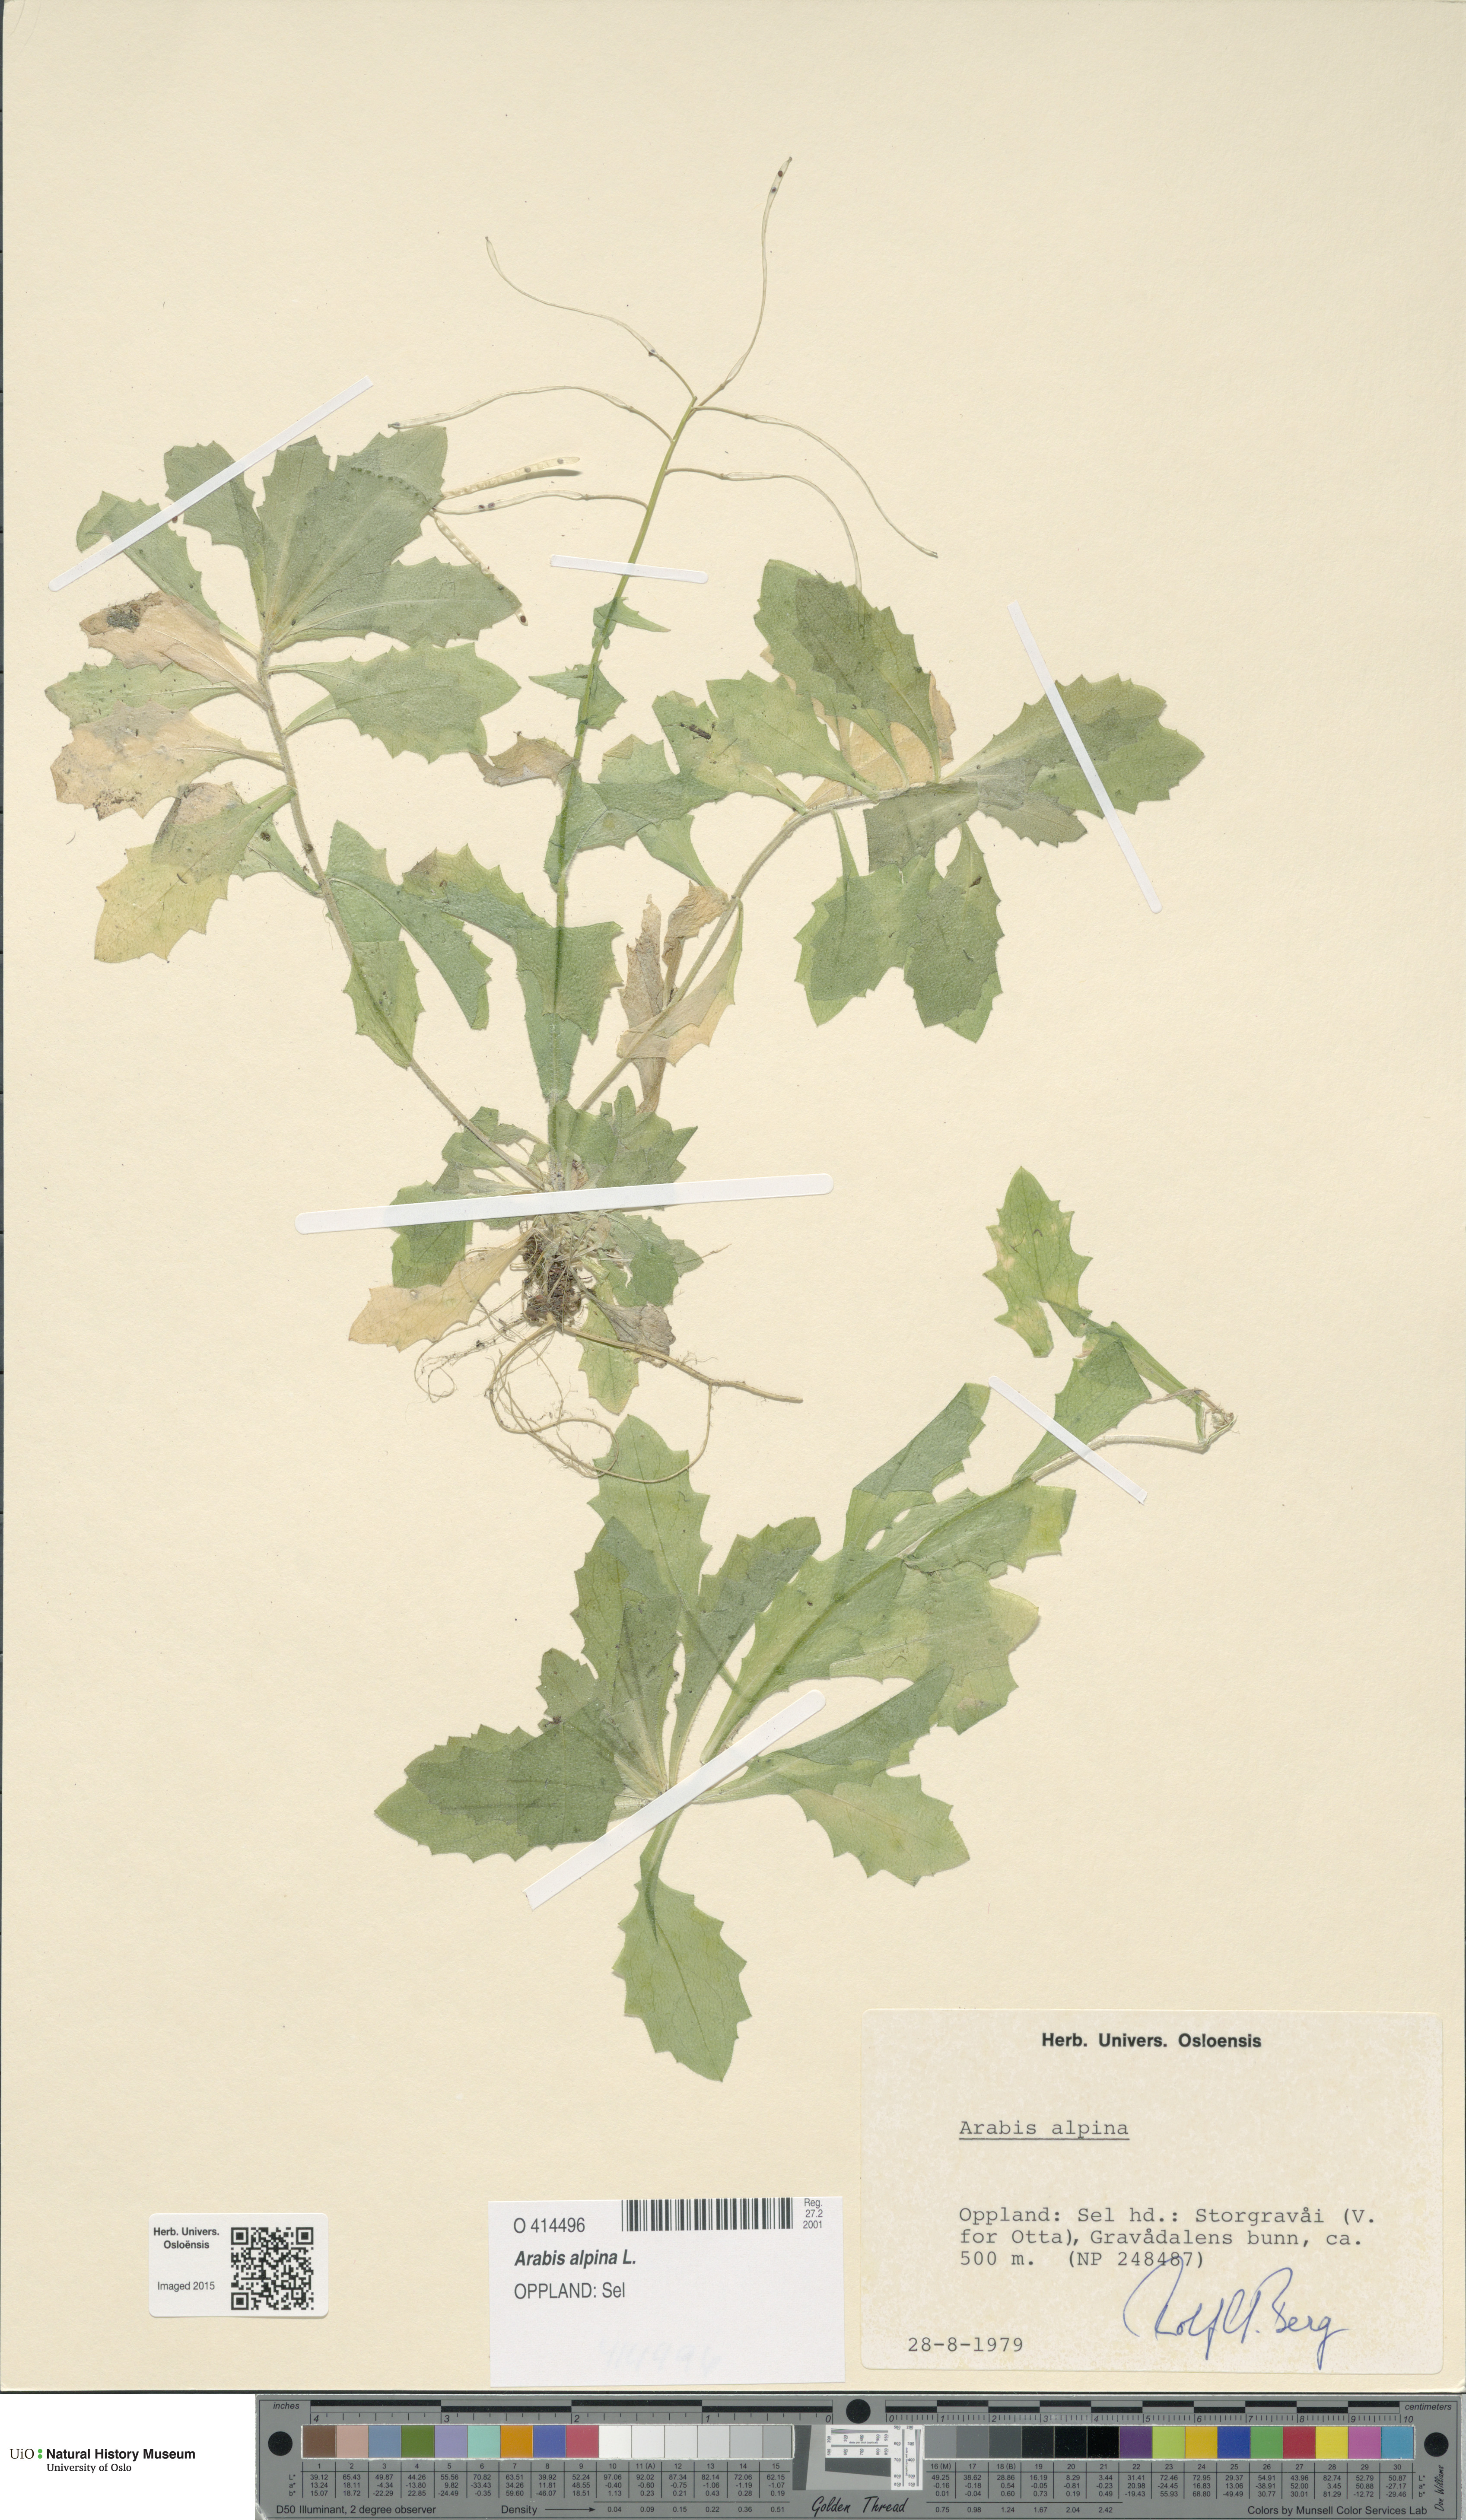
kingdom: Plantae
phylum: Tracheophyta
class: Magnoliopsida
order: Brassicales
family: Brassicaceae
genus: Arabis
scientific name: Arabis alpina
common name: Alpine rock-cress
